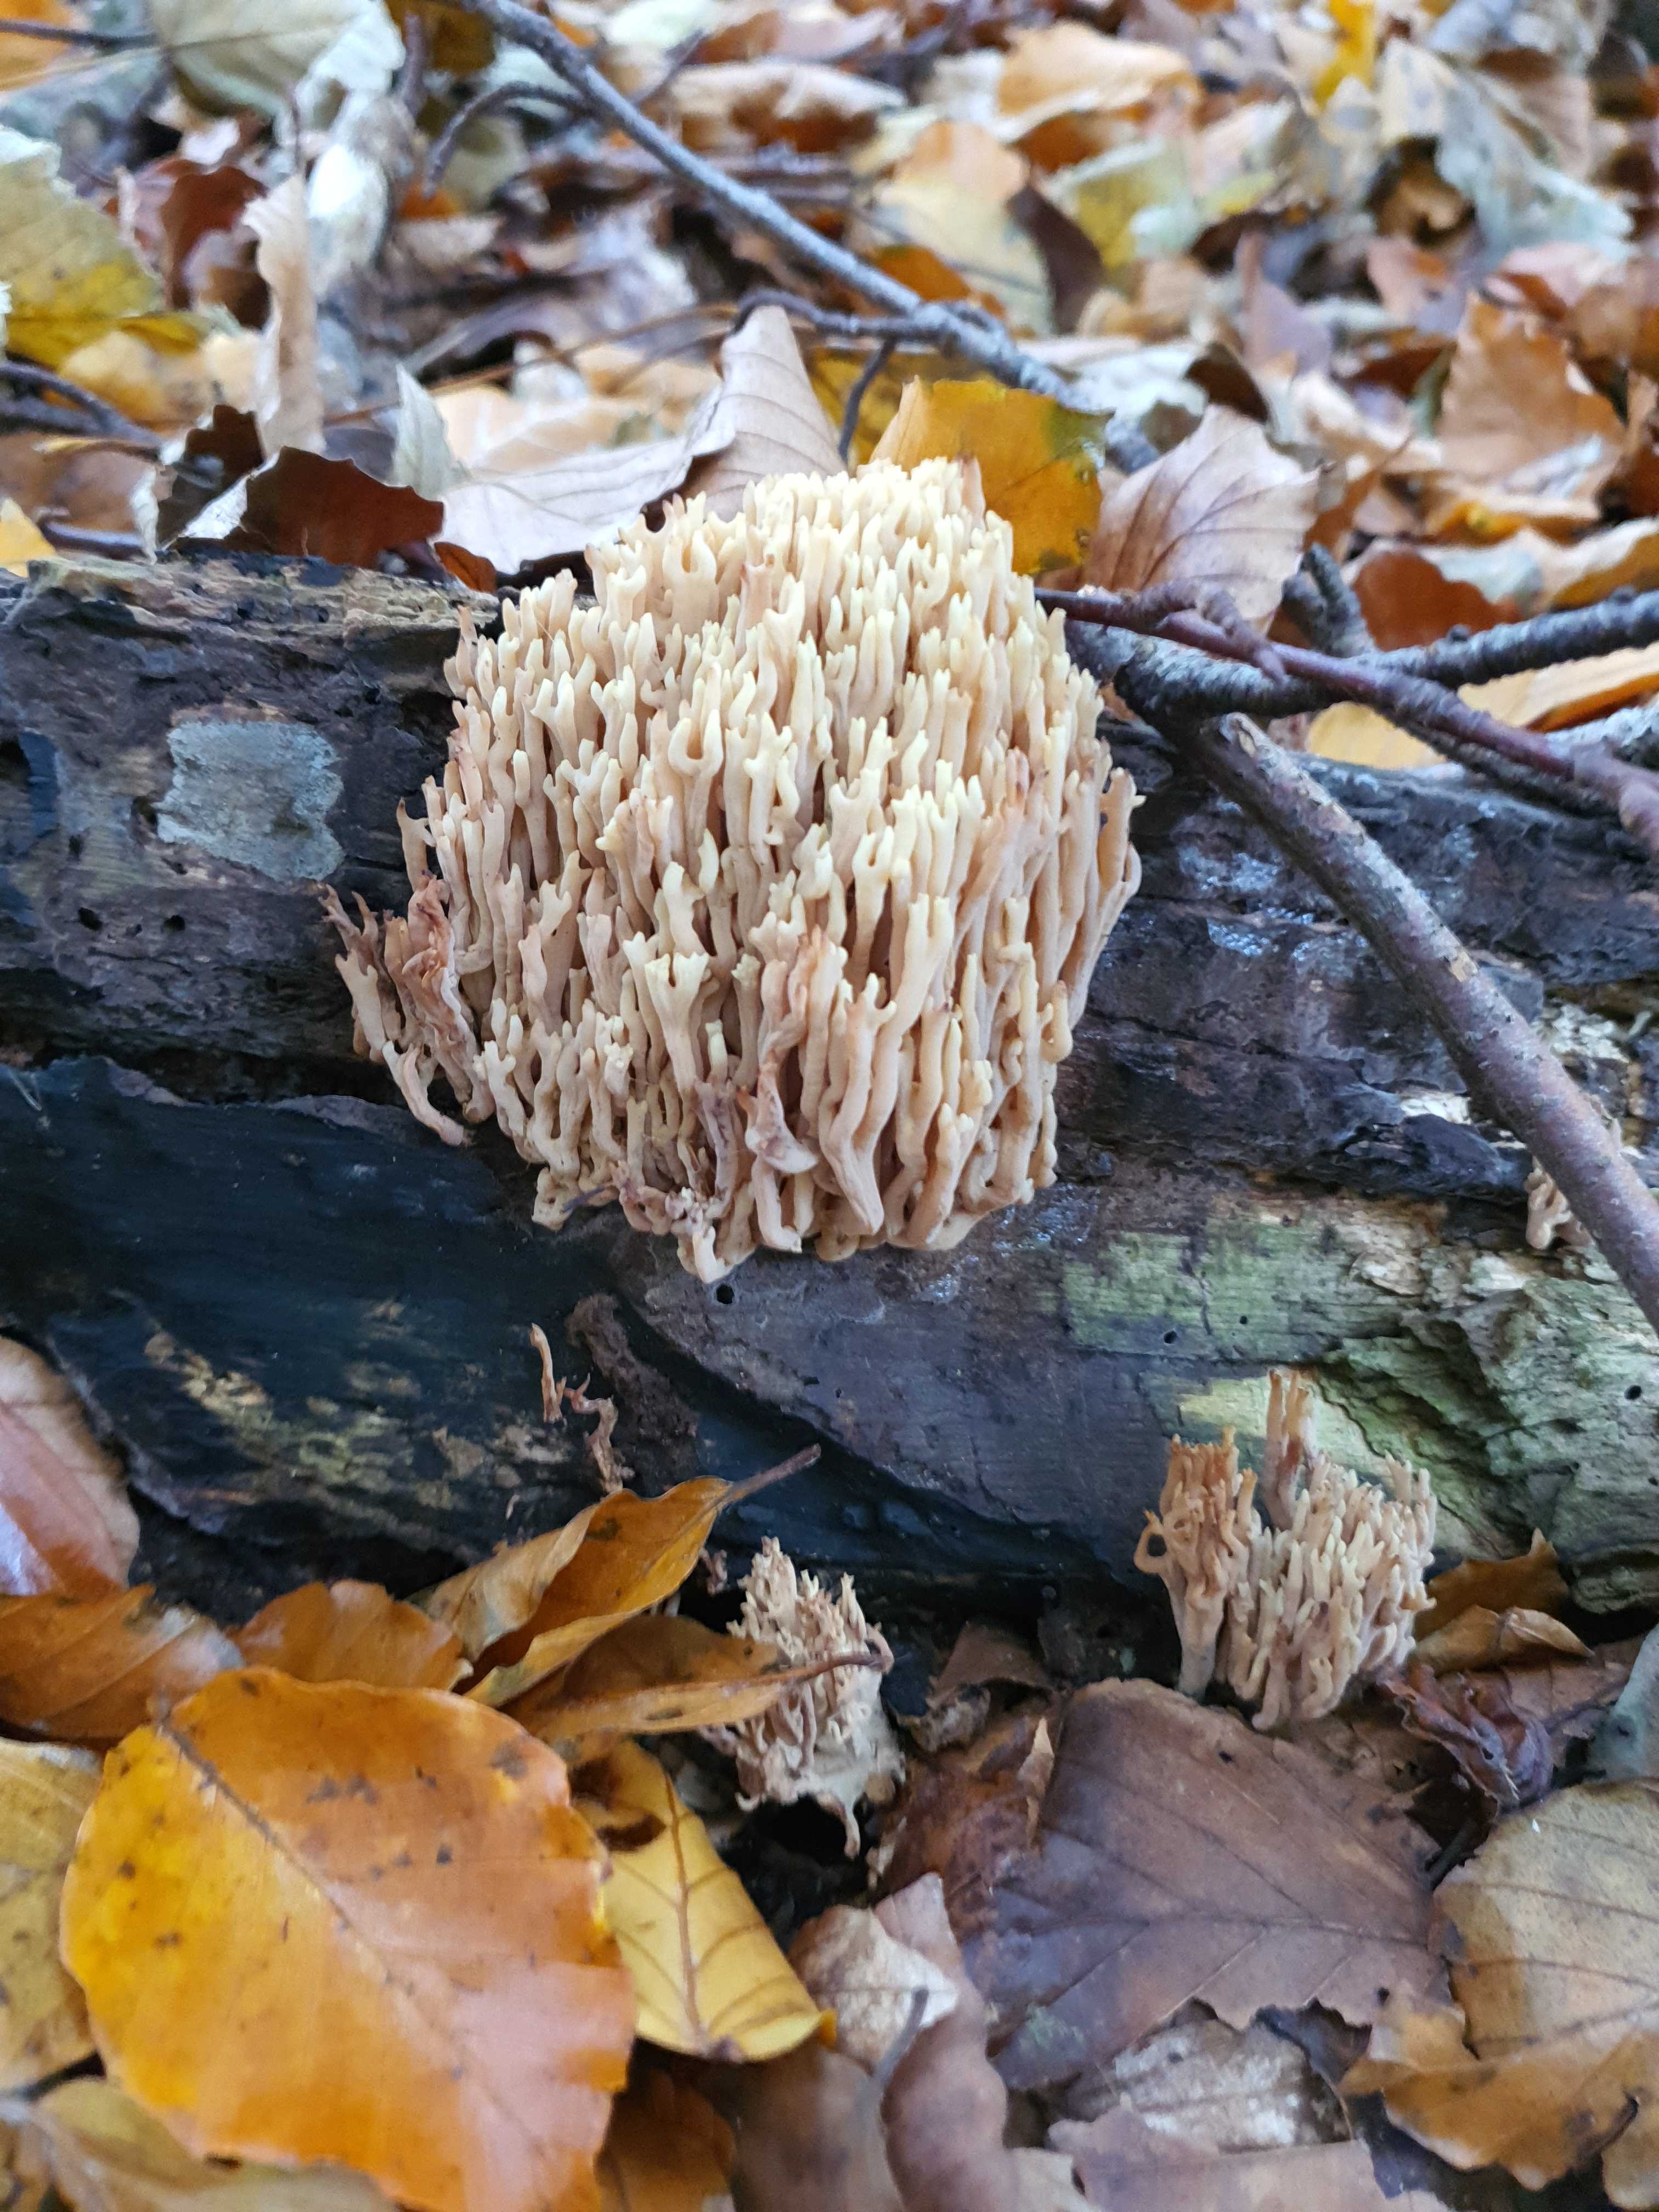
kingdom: Fungi
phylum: Basidiomycota
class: Agaricomycetes
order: Gomphales
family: Gomphaceae
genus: Ramaria
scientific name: Ramaria stricta
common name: rank koralsvamp
